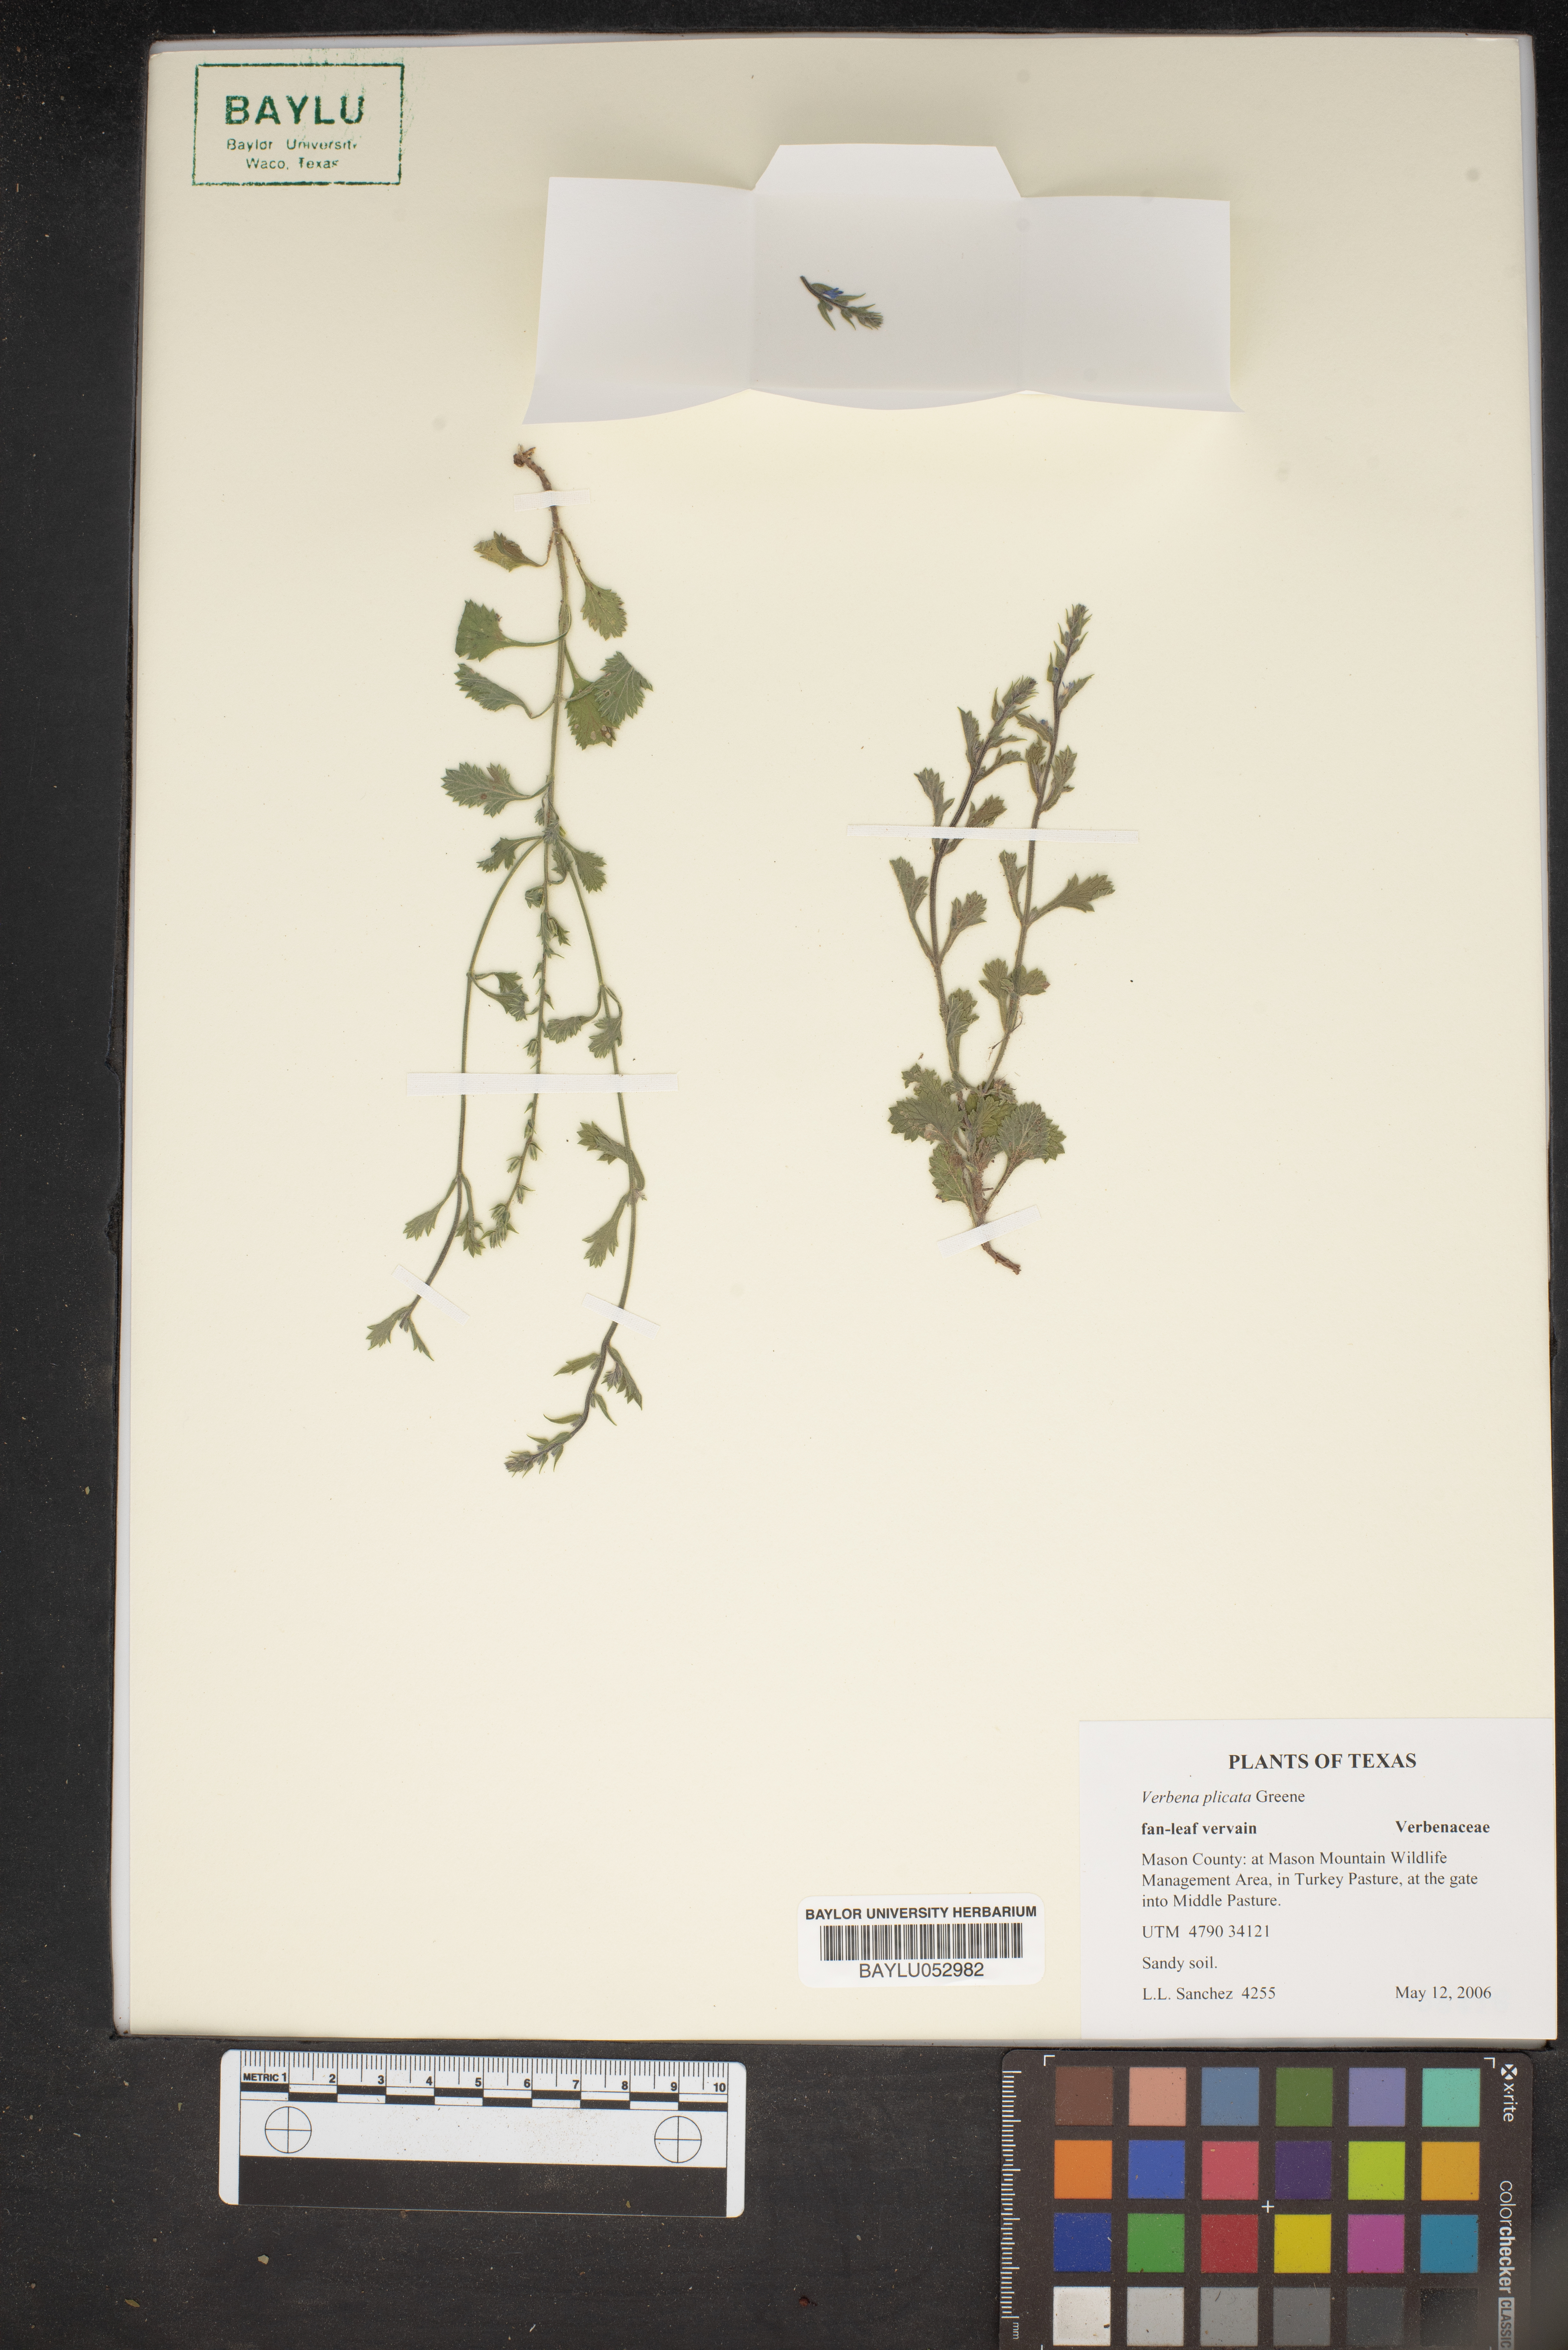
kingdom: Plantae
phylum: Tracheophyta
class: Magnoliopsida
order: Lamiales
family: Verbenaceae
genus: Verbena
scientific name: Verbena plicata
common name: Fan-leaf vervain
